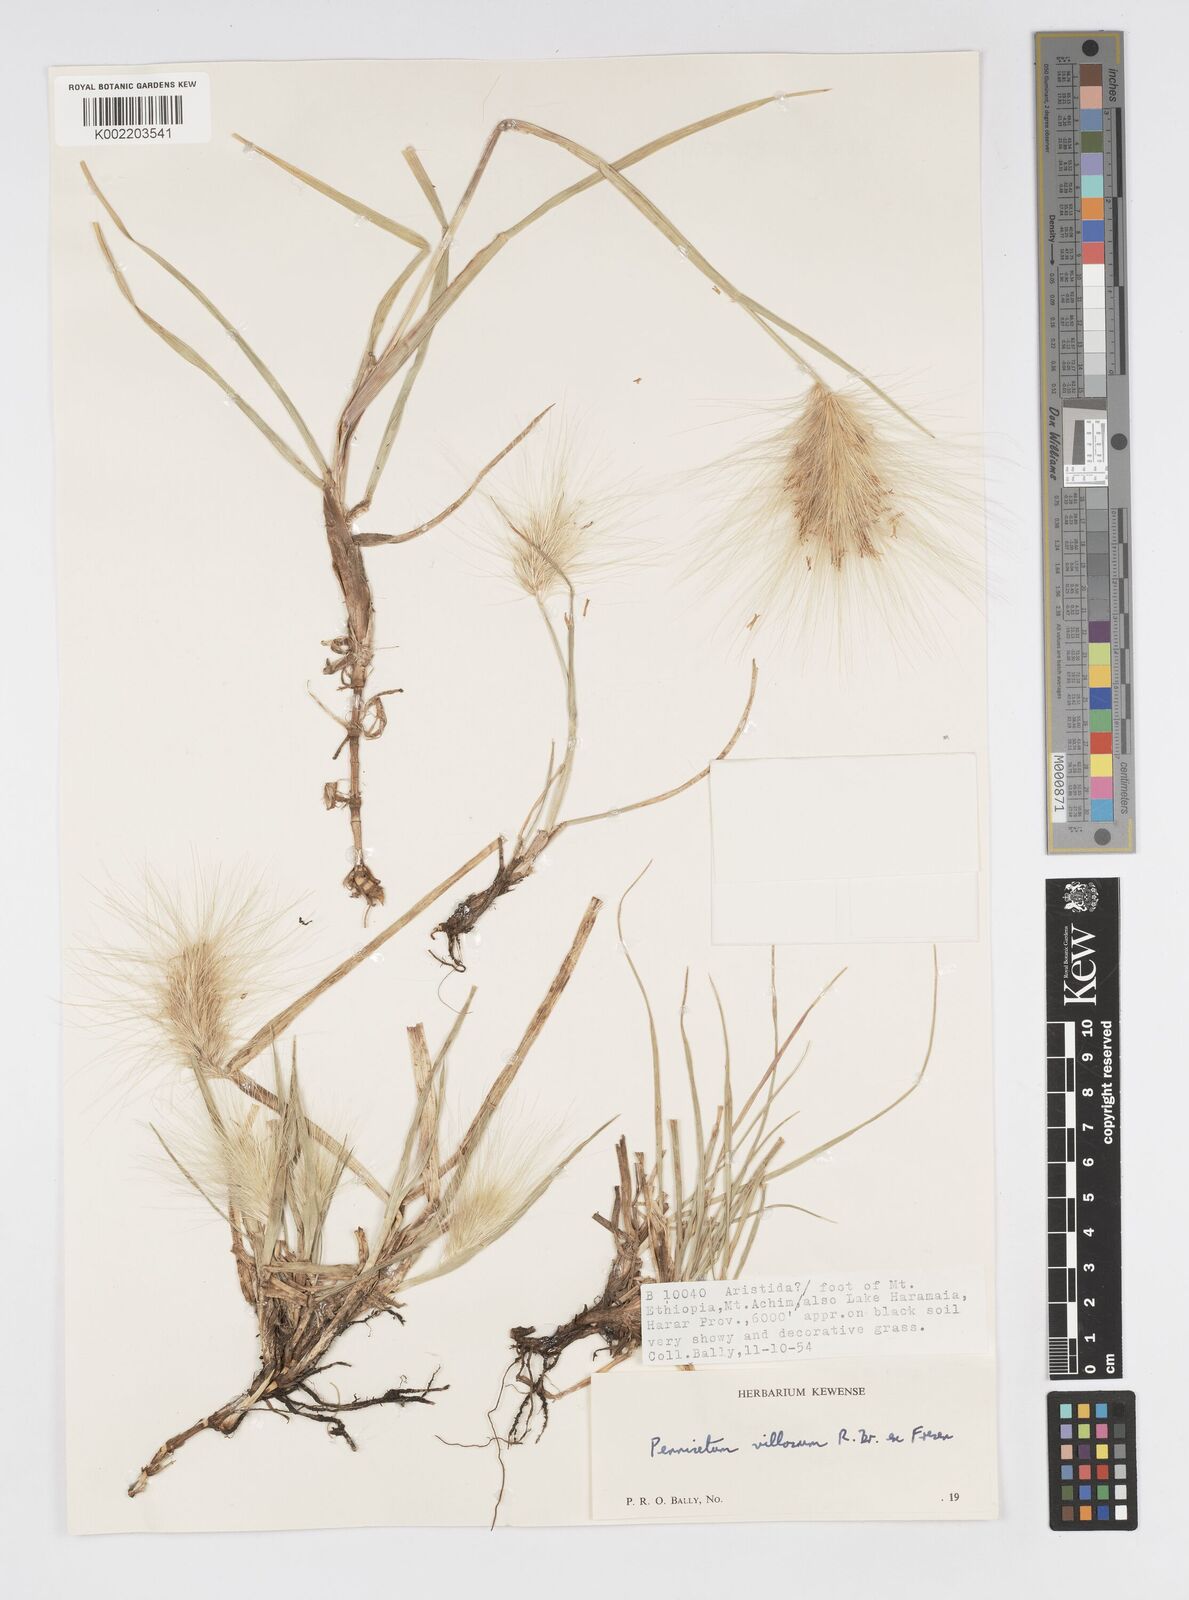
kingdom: Plantae
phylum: Tracheophyta
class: Liliopsida
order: Poales
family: Poaceae
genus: Cenchrus
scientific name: Cenchrus longisetus
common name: Feathertop
